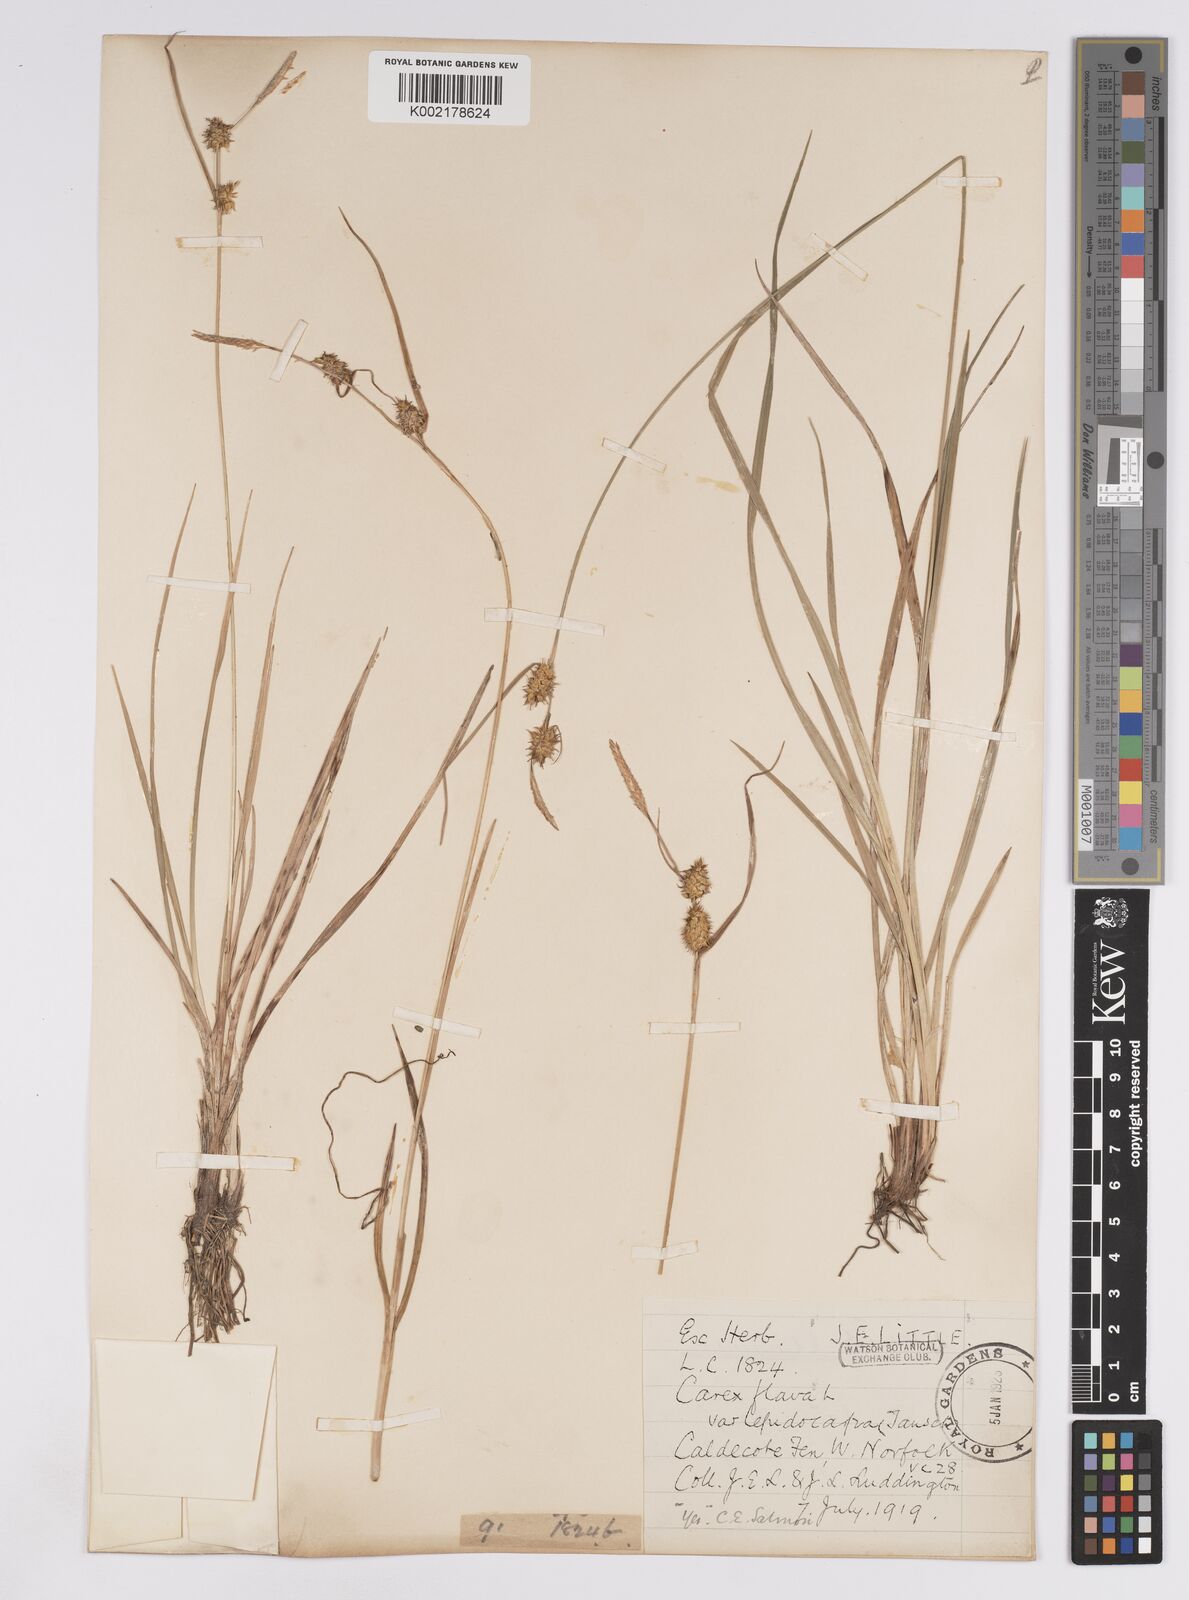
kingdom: Plantae
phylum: Tracheophyta
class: Liliopsida
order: Poales
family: Cyperaceae
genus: Carex
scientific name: Carex lepidocarpa
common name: Long-stalked yellow-sedge
